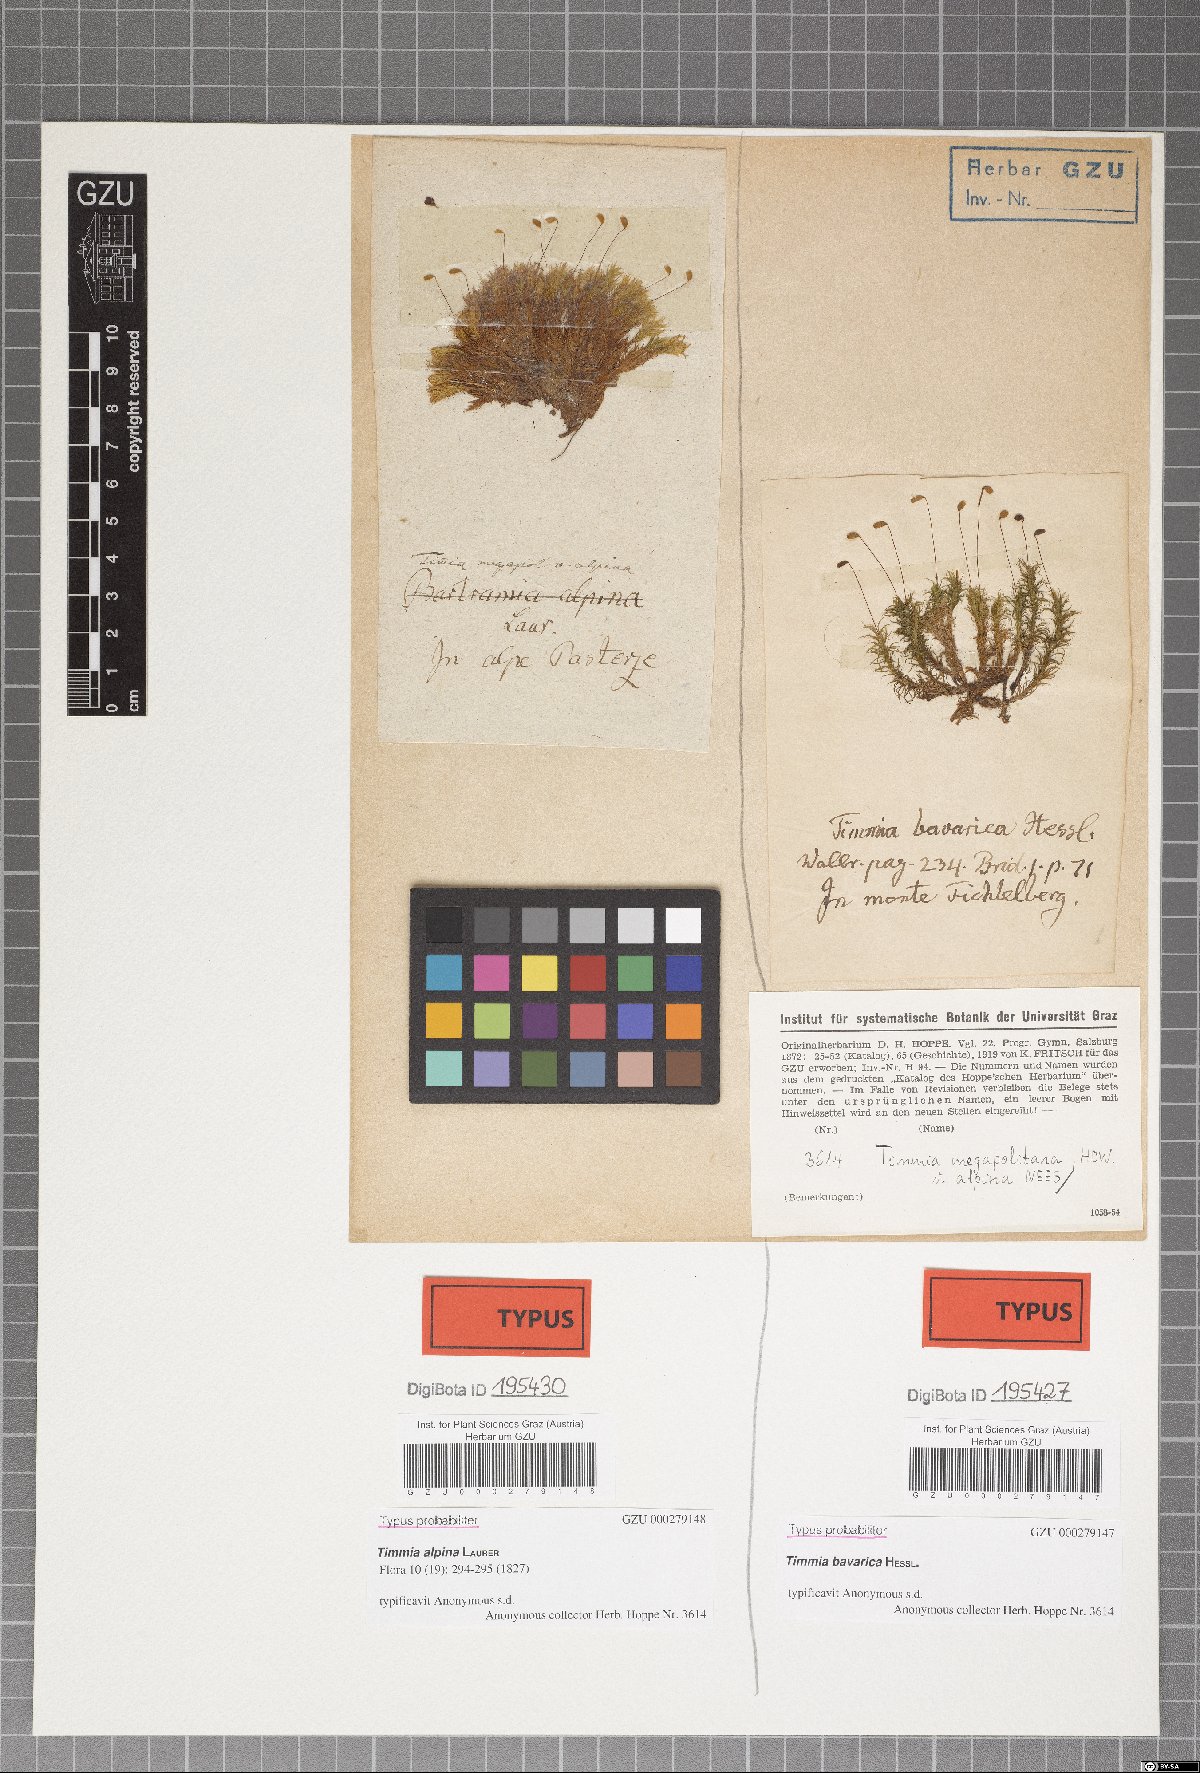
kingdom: Plantae
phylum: Bryophyta
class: Bryopsida
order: Timmiales
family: Timmiaceae
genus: Timmia
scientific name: Timmia bavarica
